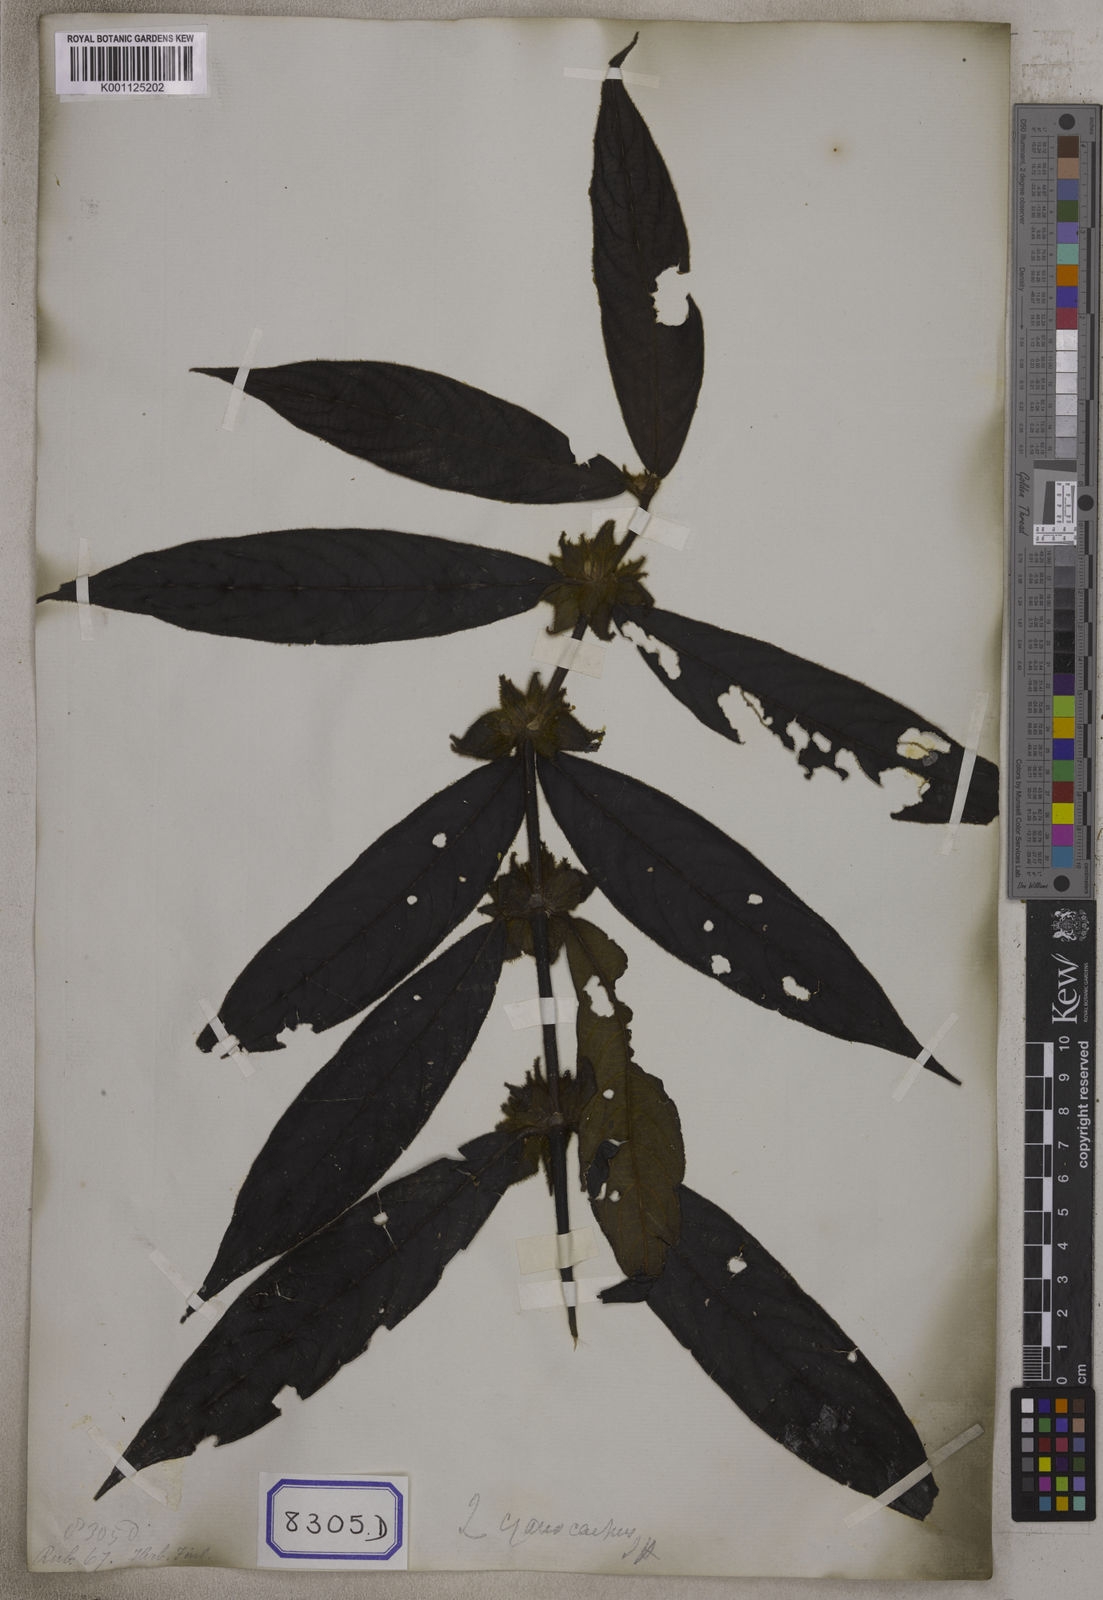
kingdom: Plantae
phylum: Tracheophyta
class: Magnoliopsida
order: Gentianales
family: Rubiaceae
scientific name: Rubiaceae
